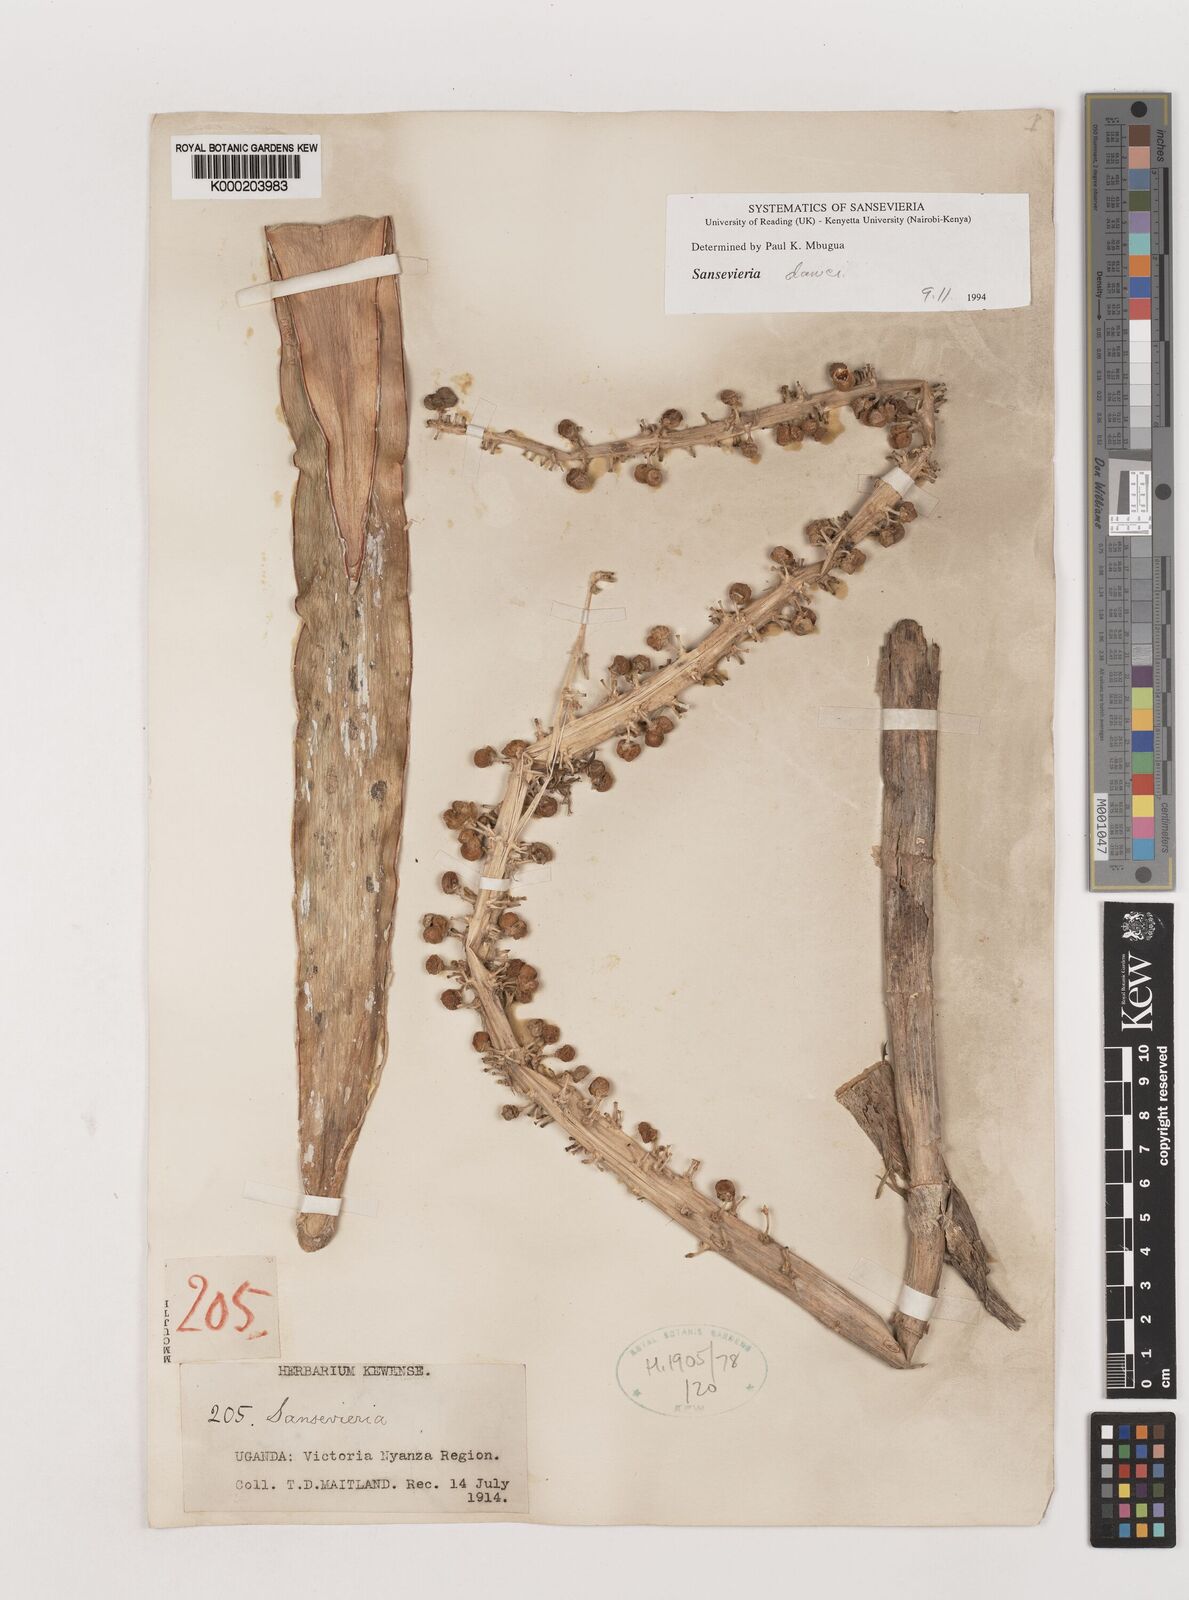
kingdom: Plantae
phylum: Tracheophyta
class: Liliopsida
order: Asparagales
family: Asparagaceae
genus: Dracaena
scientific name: Dracaena
